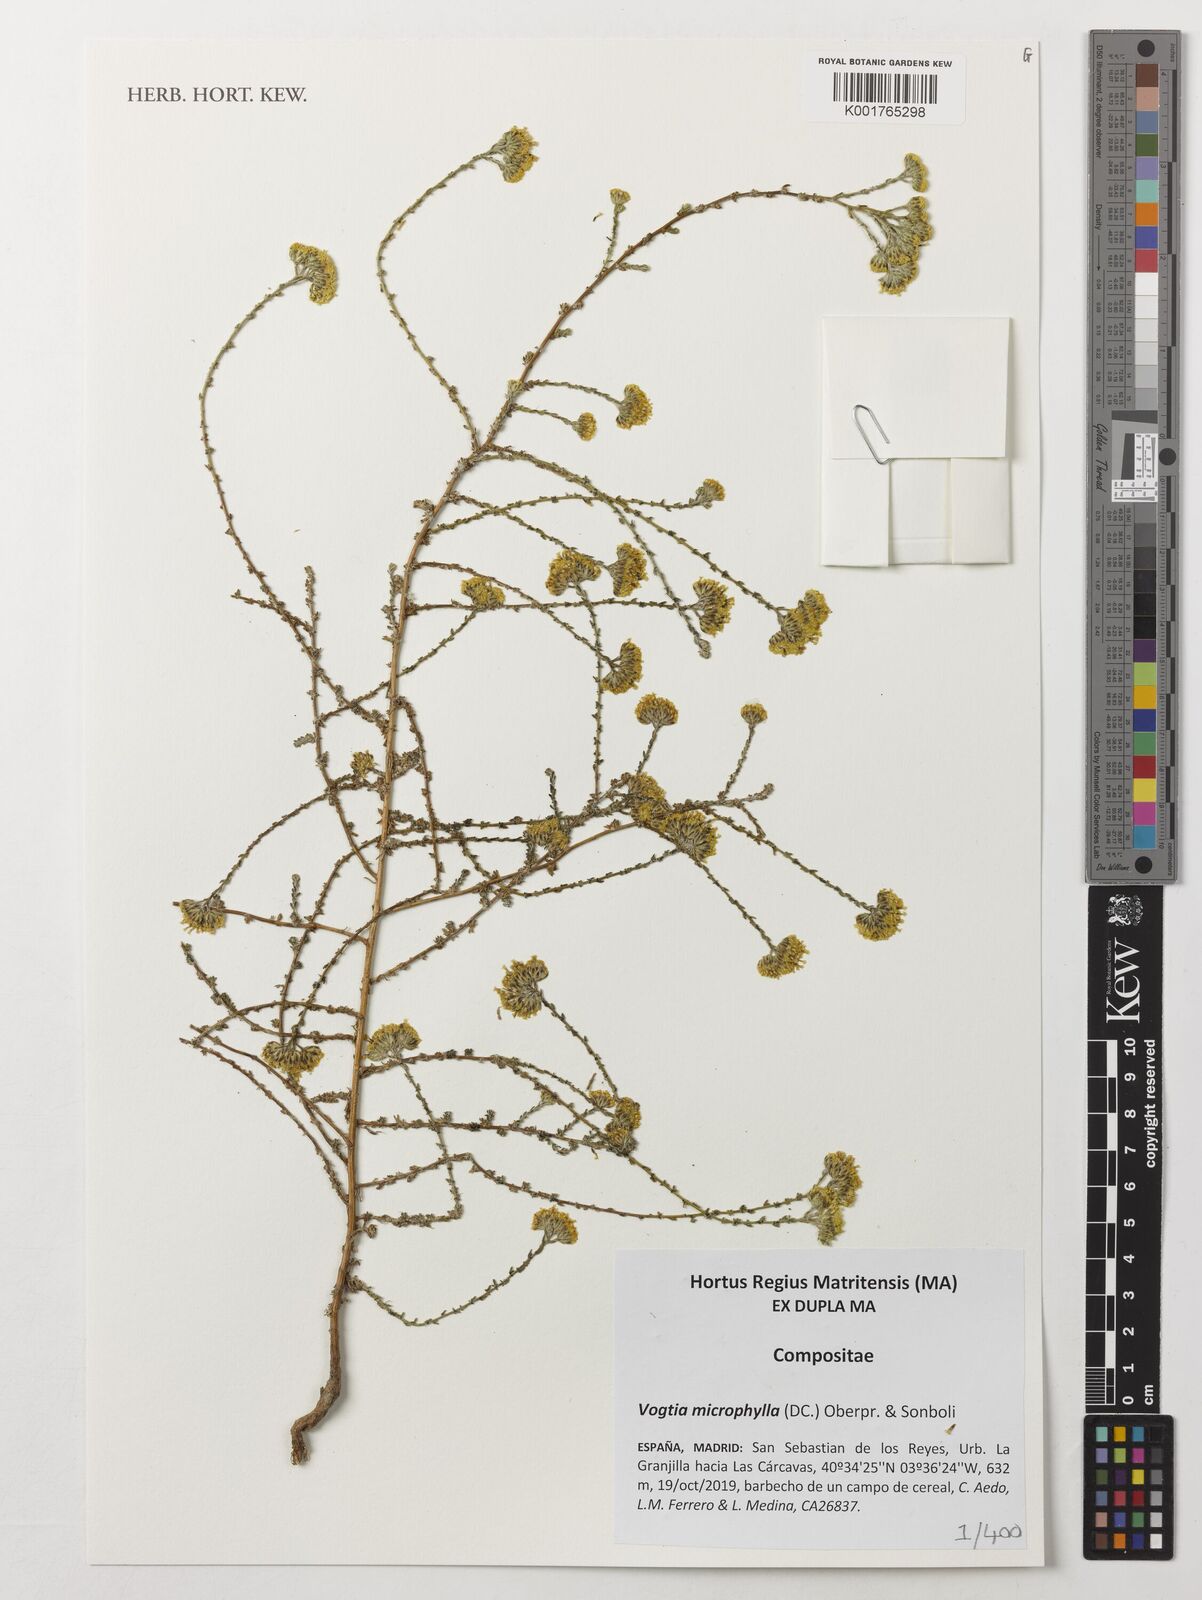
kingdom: Plantae
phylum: Tracheophyta
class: Magnoliopsida
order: Asterales
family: Asteraceae
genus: Vogtia
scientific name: Vogtia microphylla
